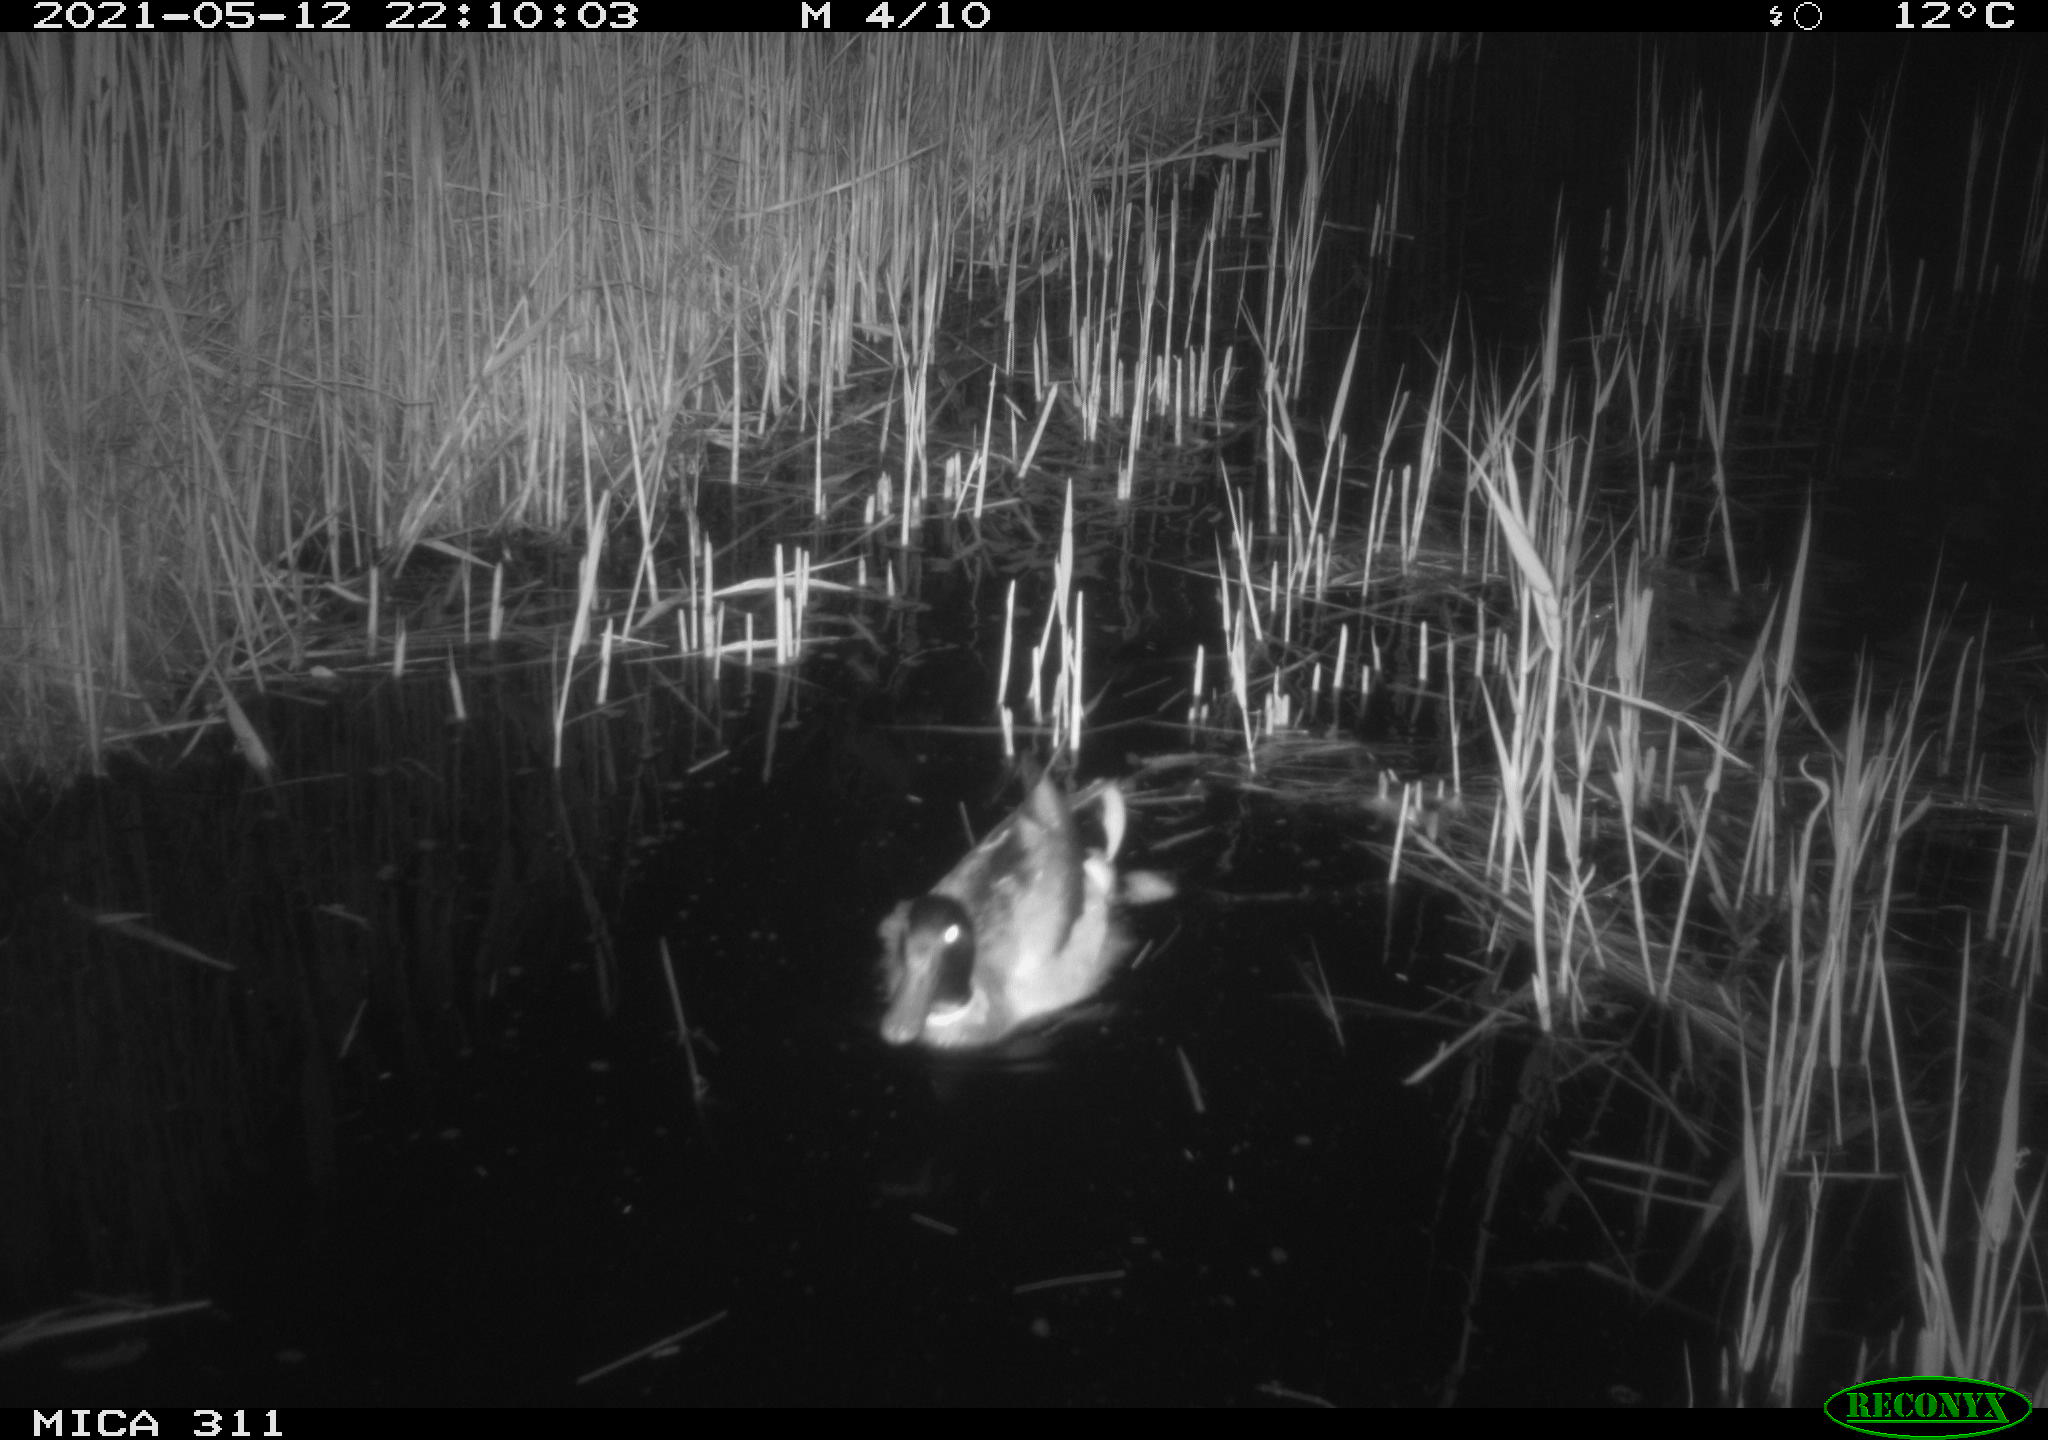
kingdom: Animalia
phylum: Chordata
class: Aves
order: Anseriformes
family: Anatidae
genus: Anas
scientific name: Anas platyrhynchos
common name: Mallard
